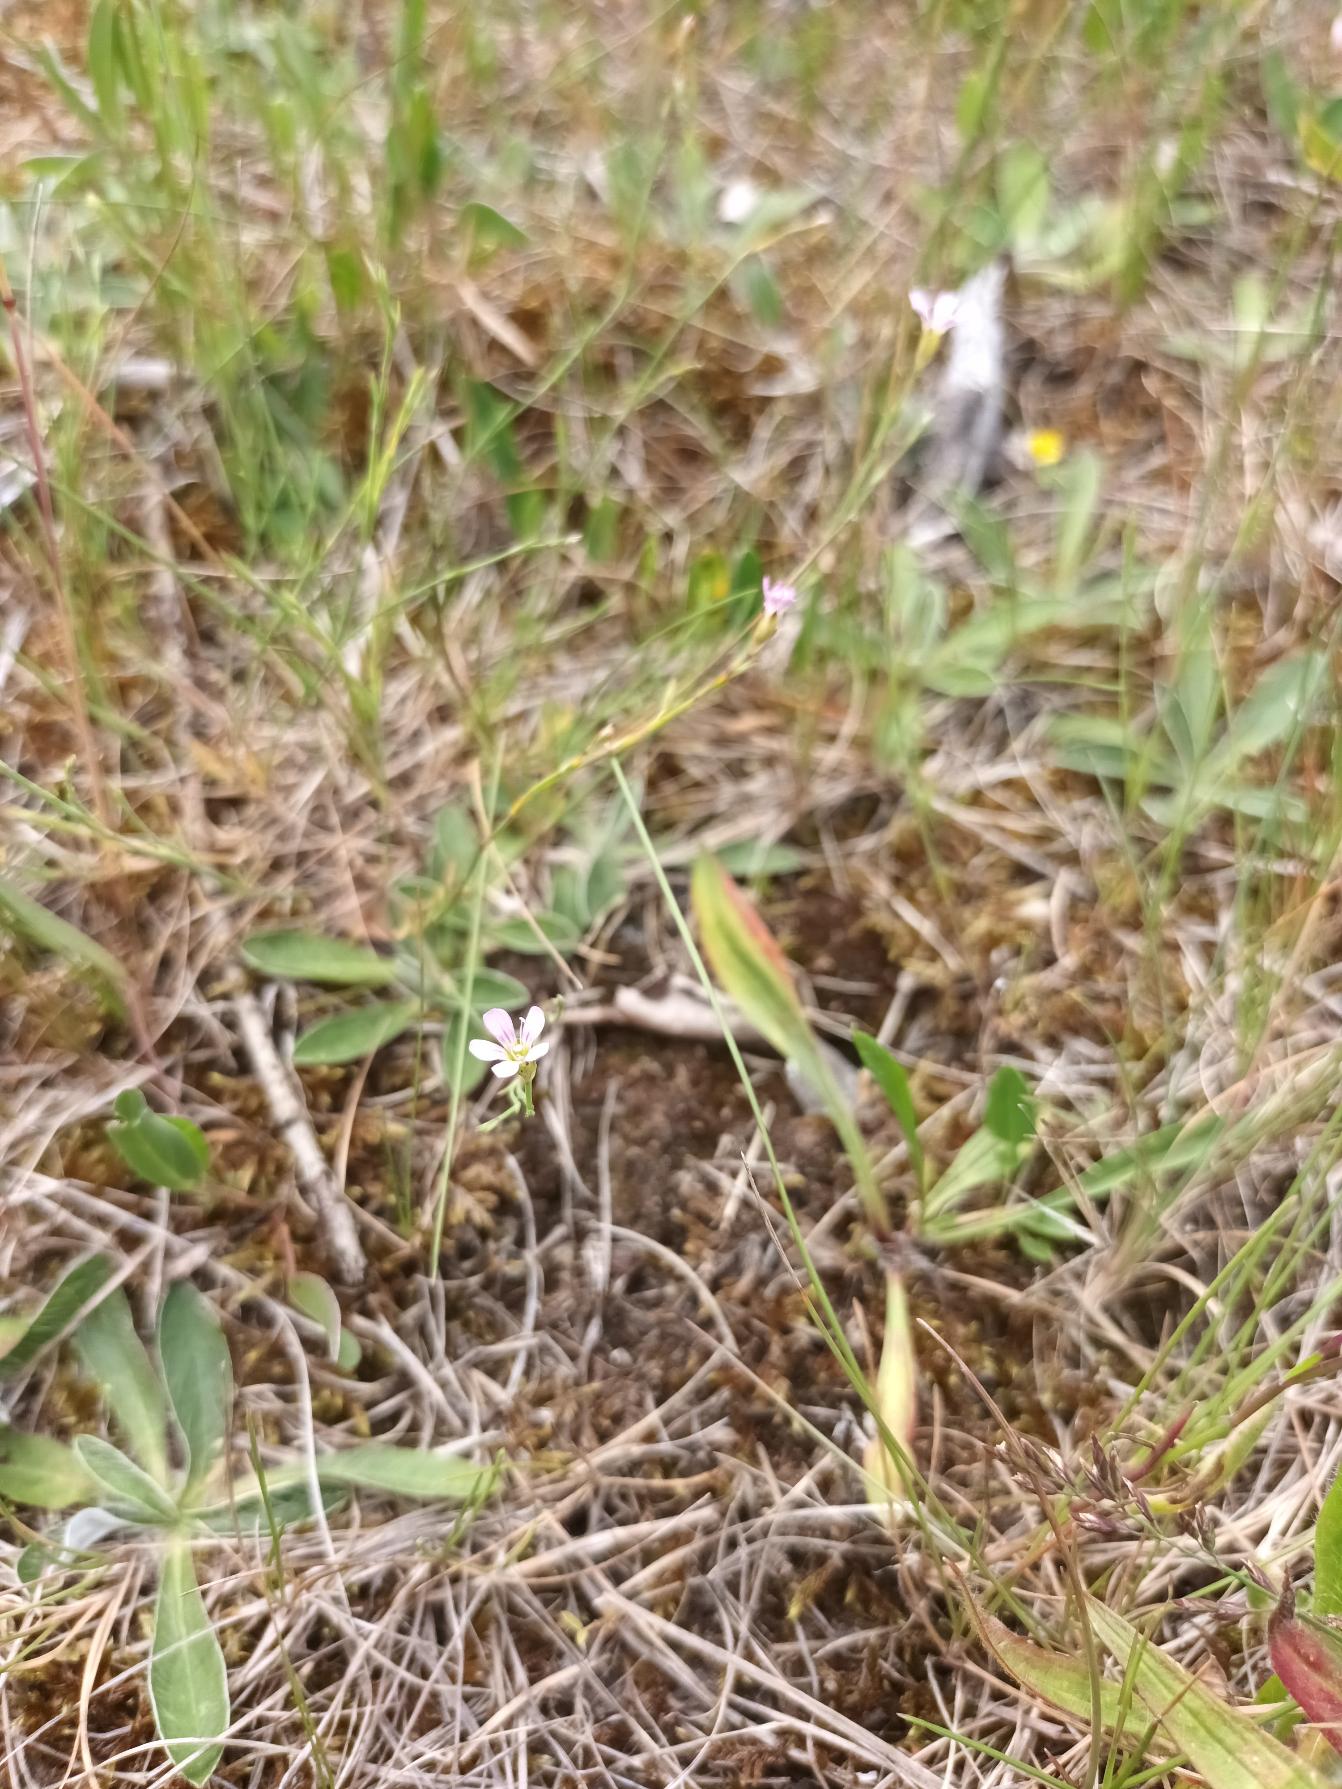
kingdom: Plantae
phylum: Tracheophyta
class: Magnoliopsida
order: Caryophyllales
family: Caryophyllaceae
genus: Petrorhagia
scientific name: Petrorhagia saxifraga
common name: Fjeld-knopnellike
